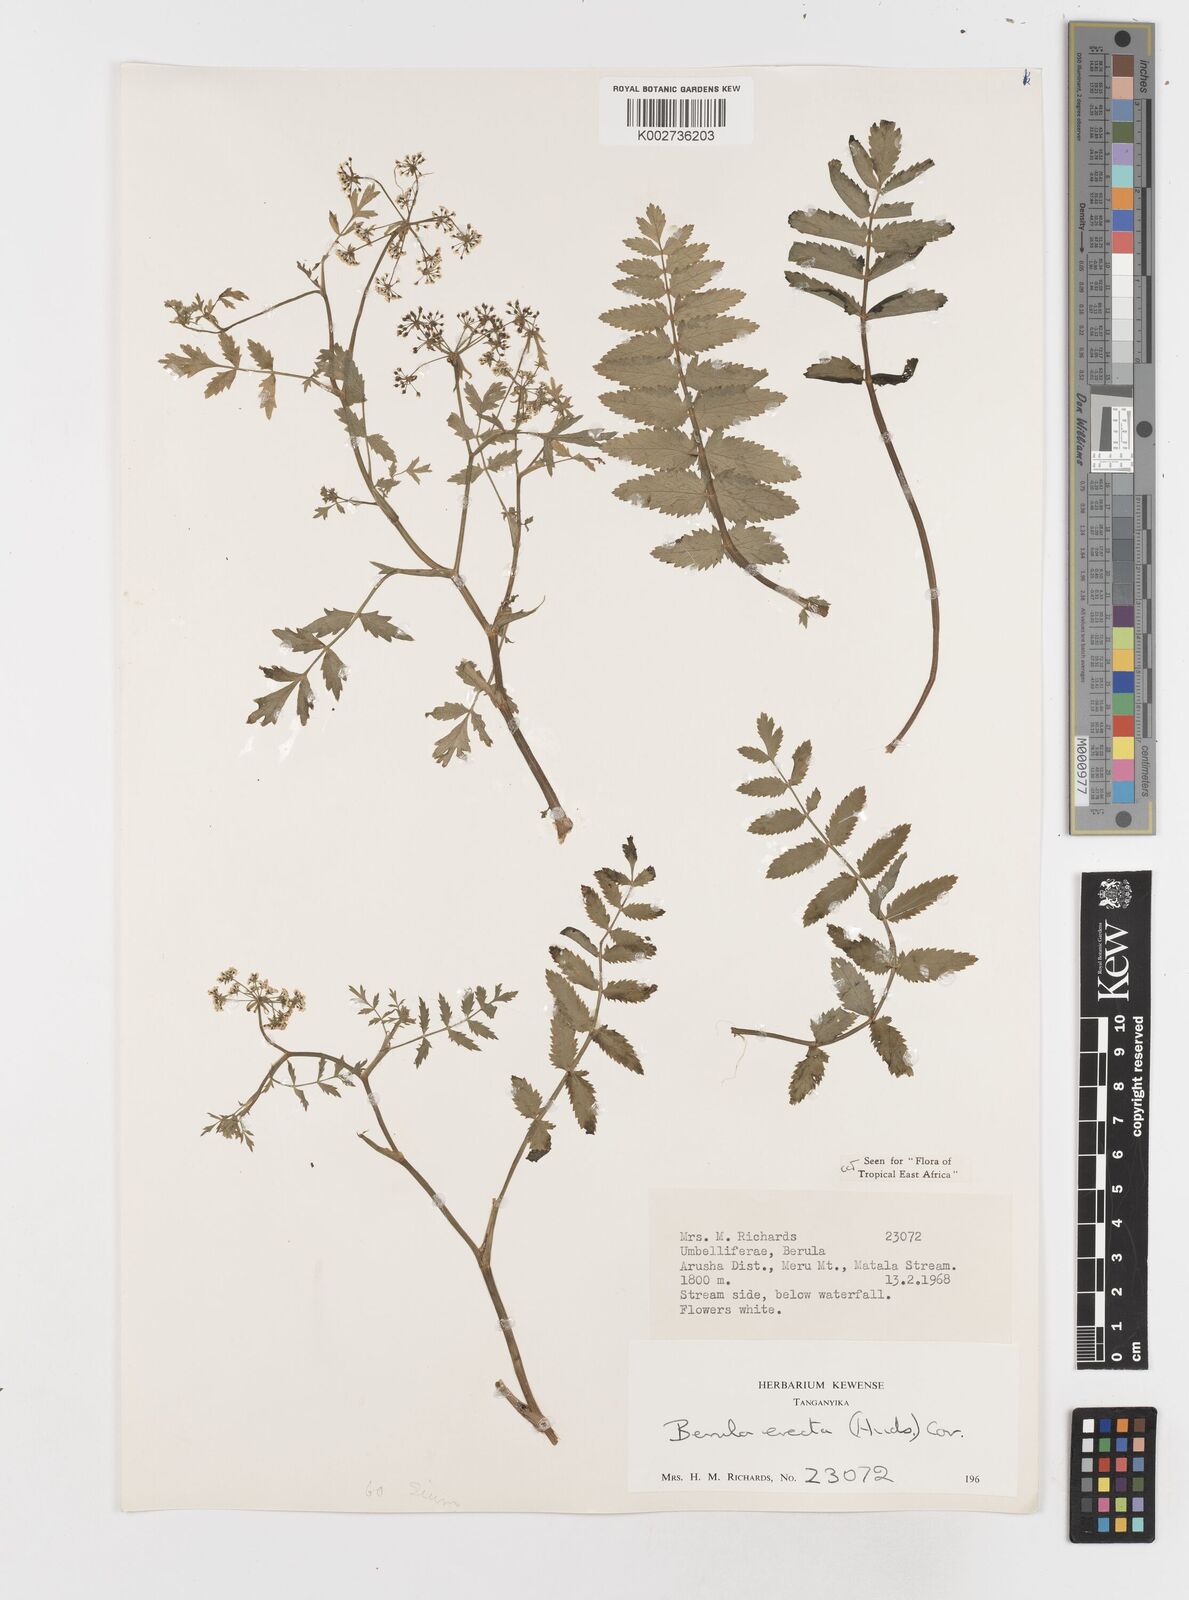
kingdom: Plantae
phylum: Tracheophyta
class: Magnoliopsida
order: Apiales
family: Apiaceae
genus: Berula
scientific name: Berula erecta
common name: Lesser water-parsnip
